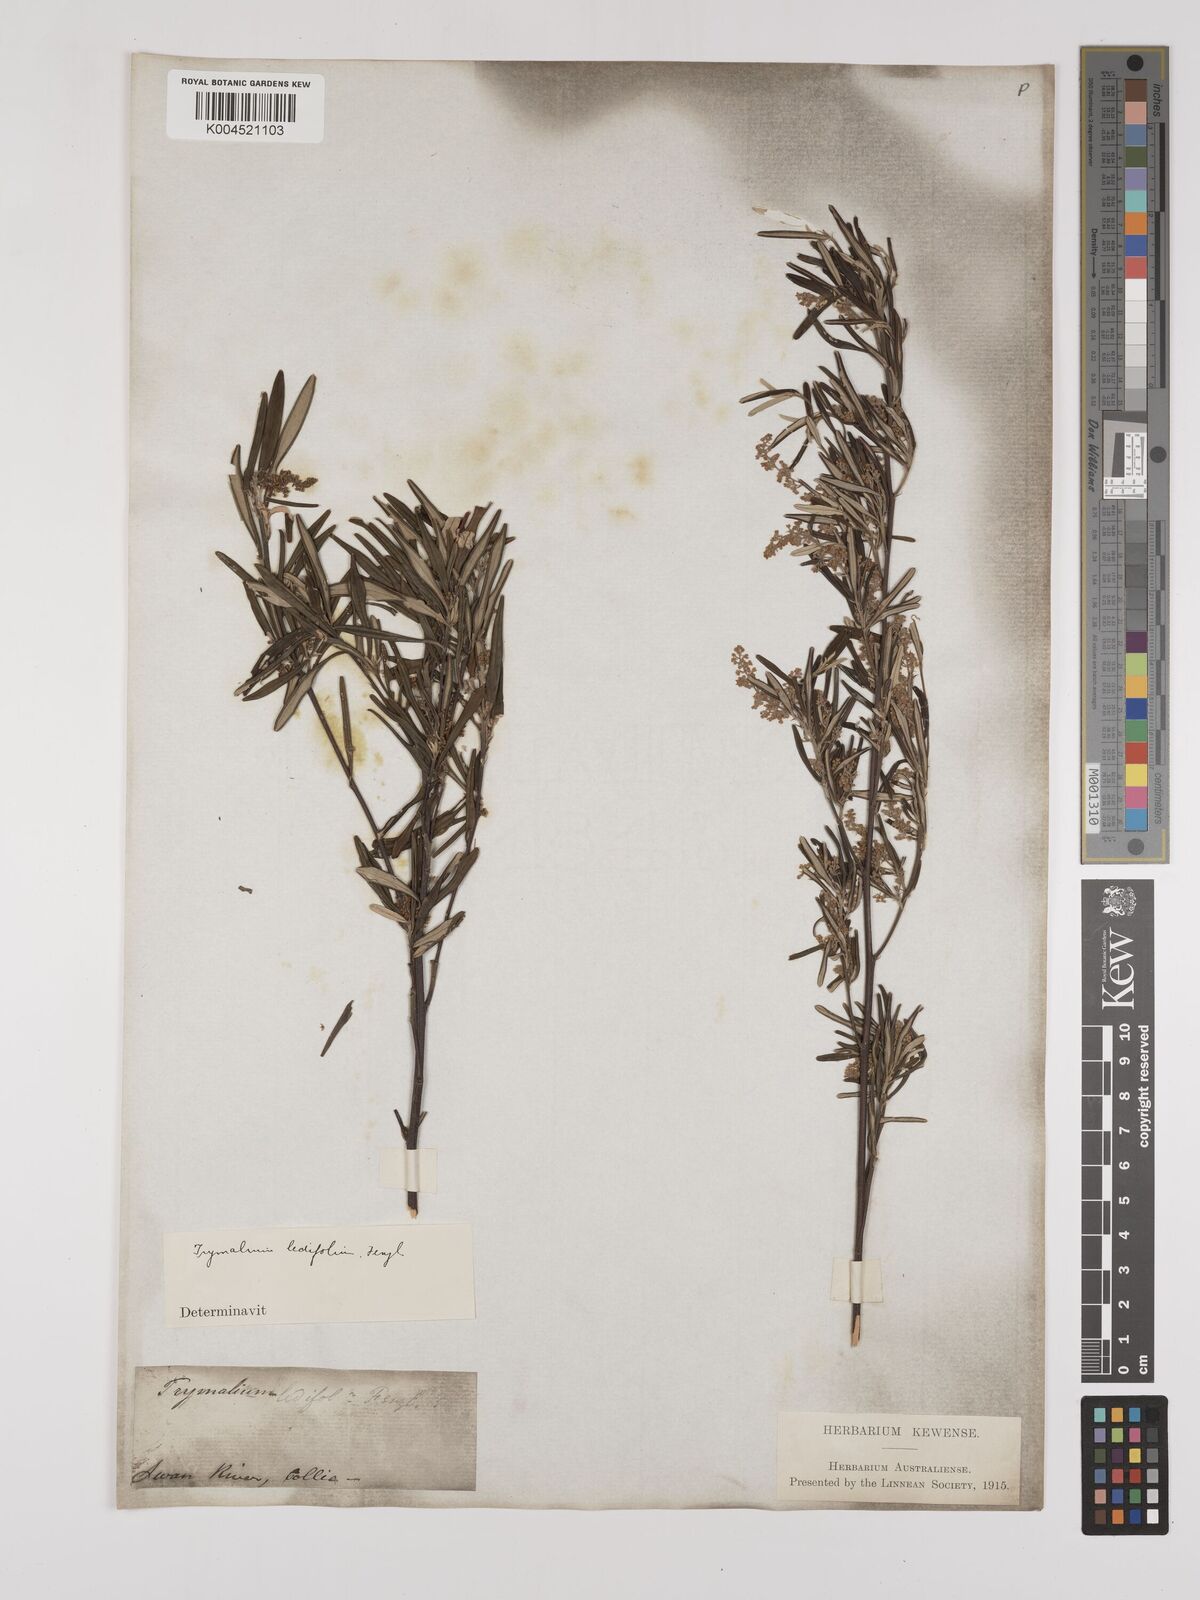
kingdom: Plantae
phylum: Tracheophyta
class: Magnoliopsida
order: Rosales
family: Rhamnaceae
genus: Trymalium
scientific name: Trymalium ledifolium
